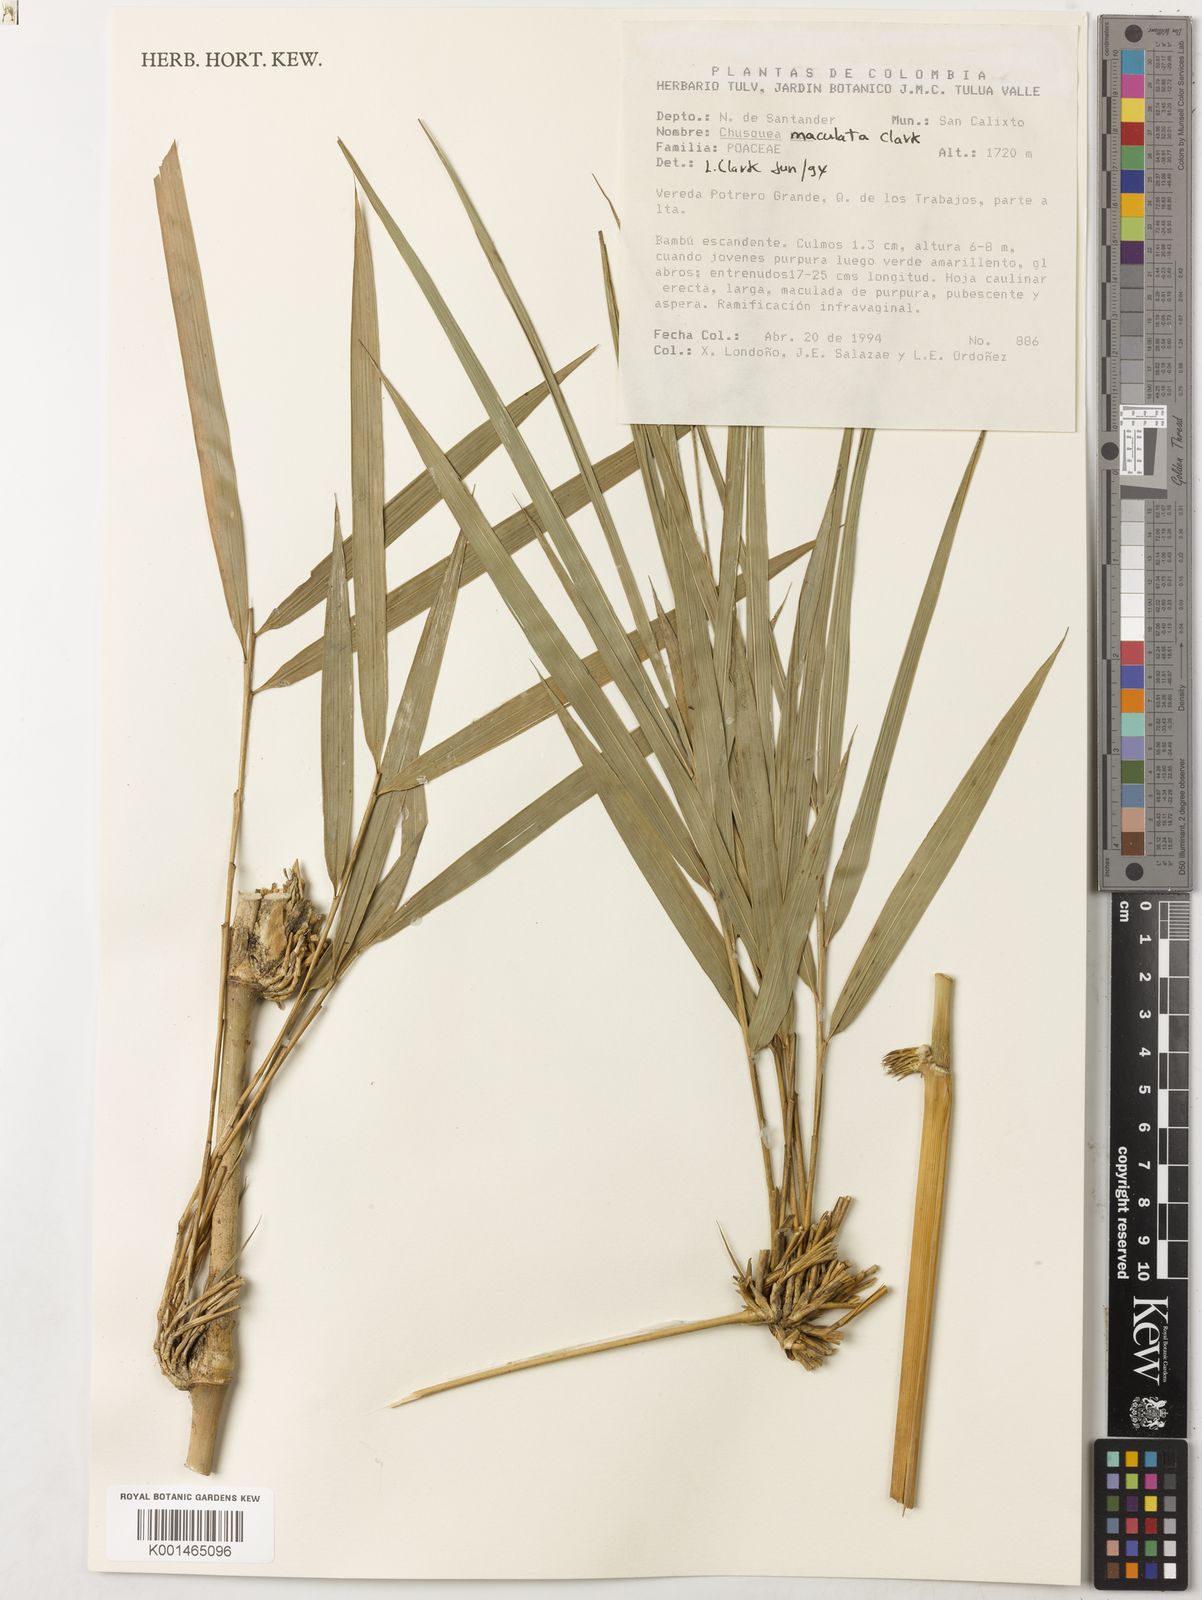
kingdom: Plantae
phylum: Tracheophyta
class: Liliopsida
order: Poales
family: Poaceae
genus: Chusquea
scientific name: Chusquea maculata
